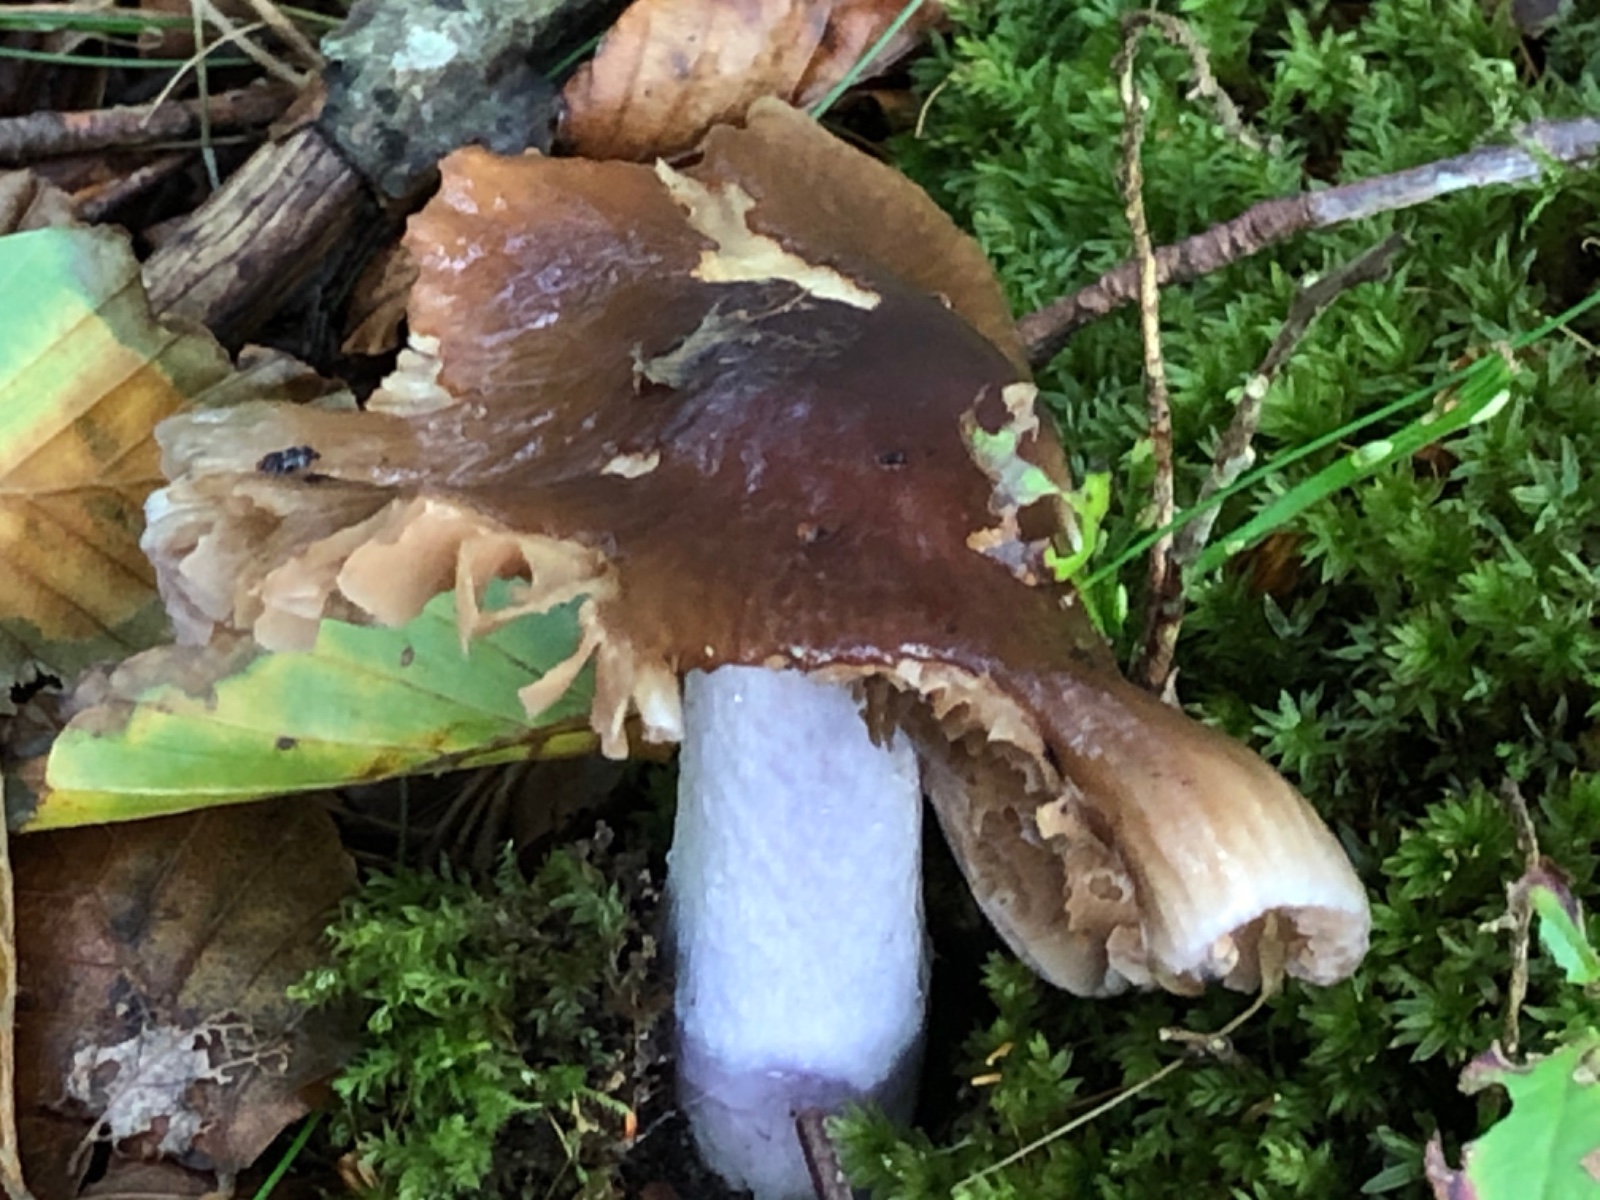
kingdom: Fungi
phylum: Basidiomycota
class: Agaricomycetes
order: Agaricales
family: Cortinariaceae
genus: Cortinarius
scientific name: Cortinarius elatior
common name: høj slørhat
